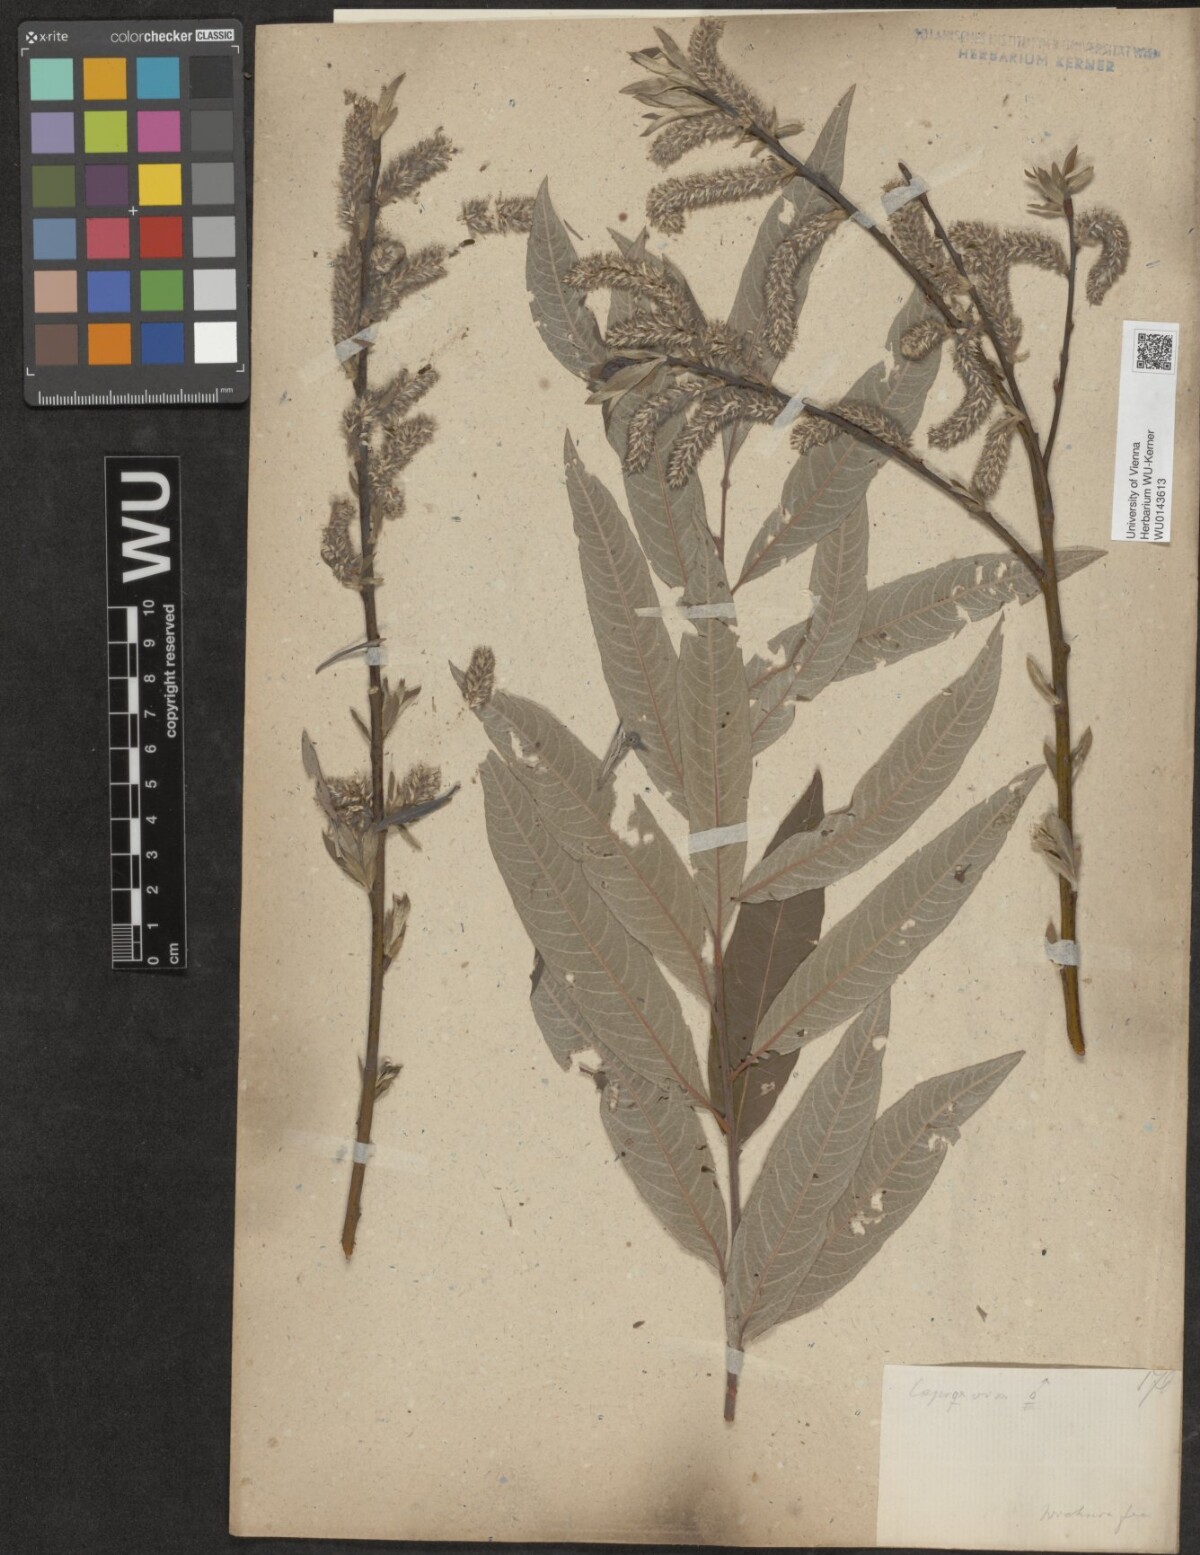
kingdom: Plantae
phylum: Tracheophyta
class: Magnoliopsida
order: Malpighiales
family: Salicaceae
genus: Salix
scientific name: Salix
